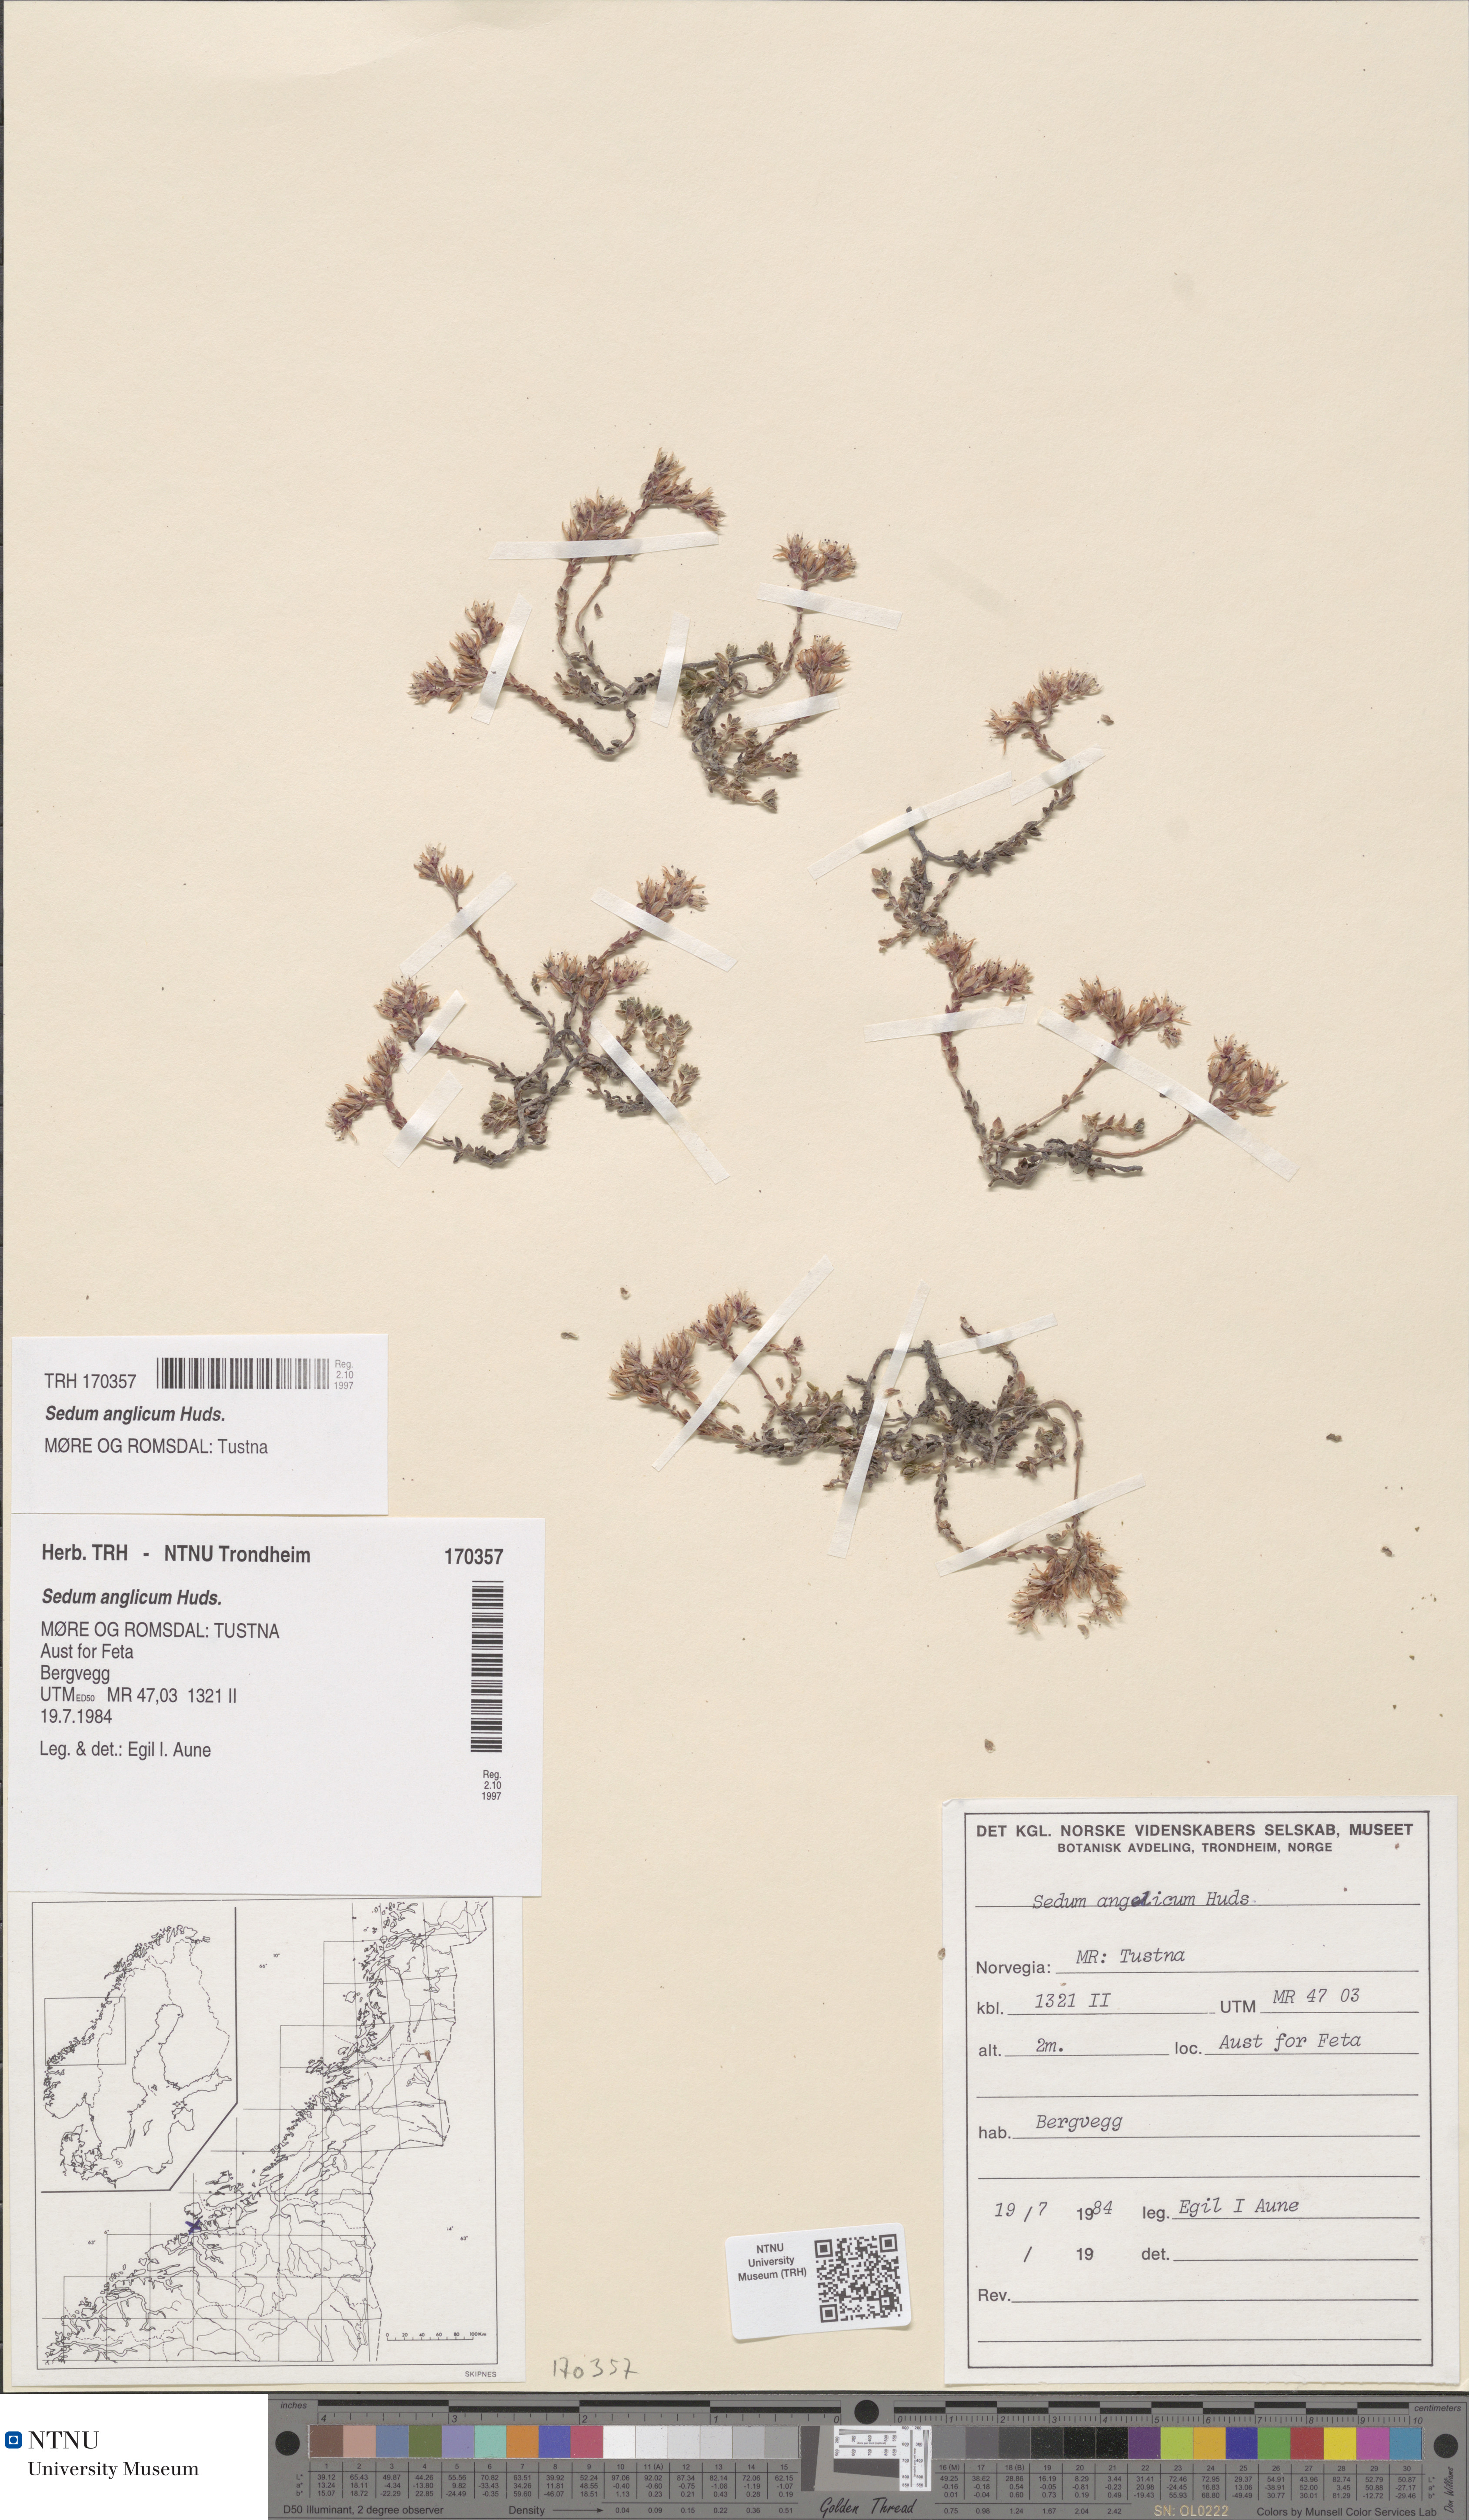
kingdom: Plantae
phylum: Tracheophyta
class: Magnoliopsida
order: Saxifragales
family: Crassulaceae
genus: Sedum
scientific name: Sedum anglicum
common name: English stonecrop
